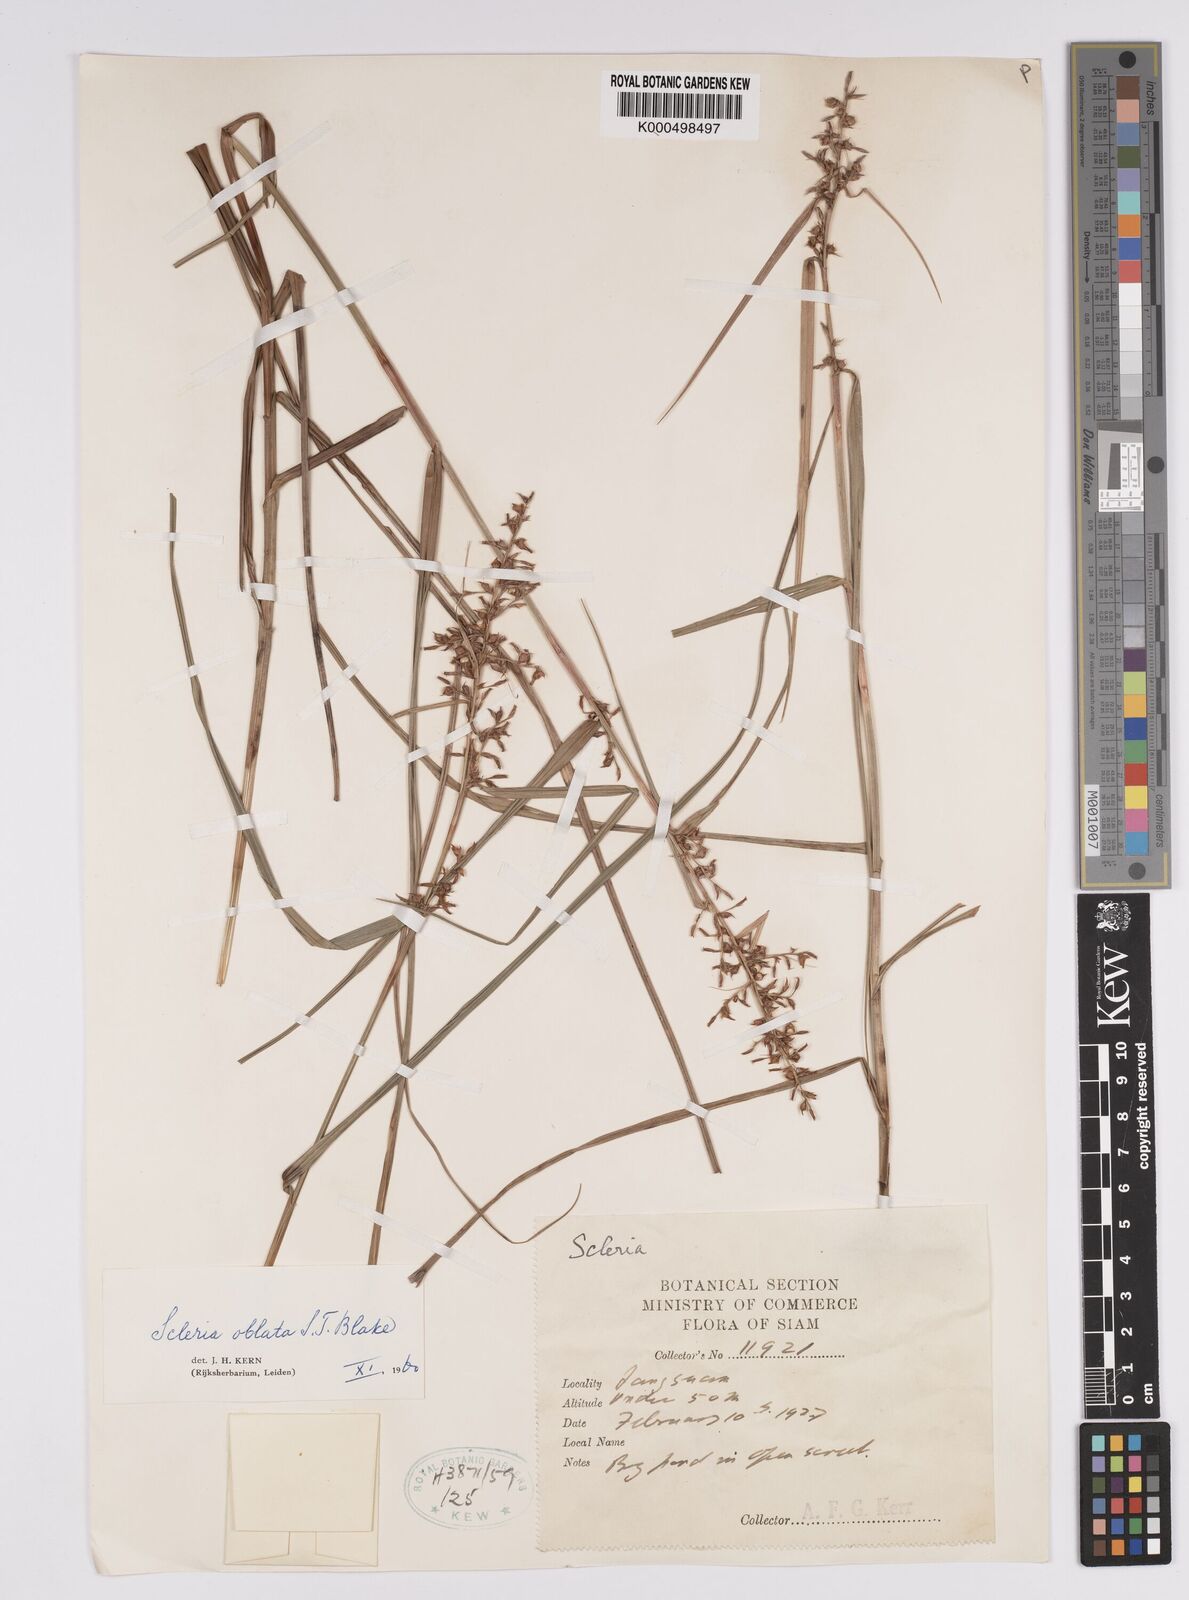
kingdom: Plantae
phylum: Tracheophyta
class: Liliopsida
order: Poales
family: Cyperaceae
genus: Scleria
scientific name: Scleria oblata
